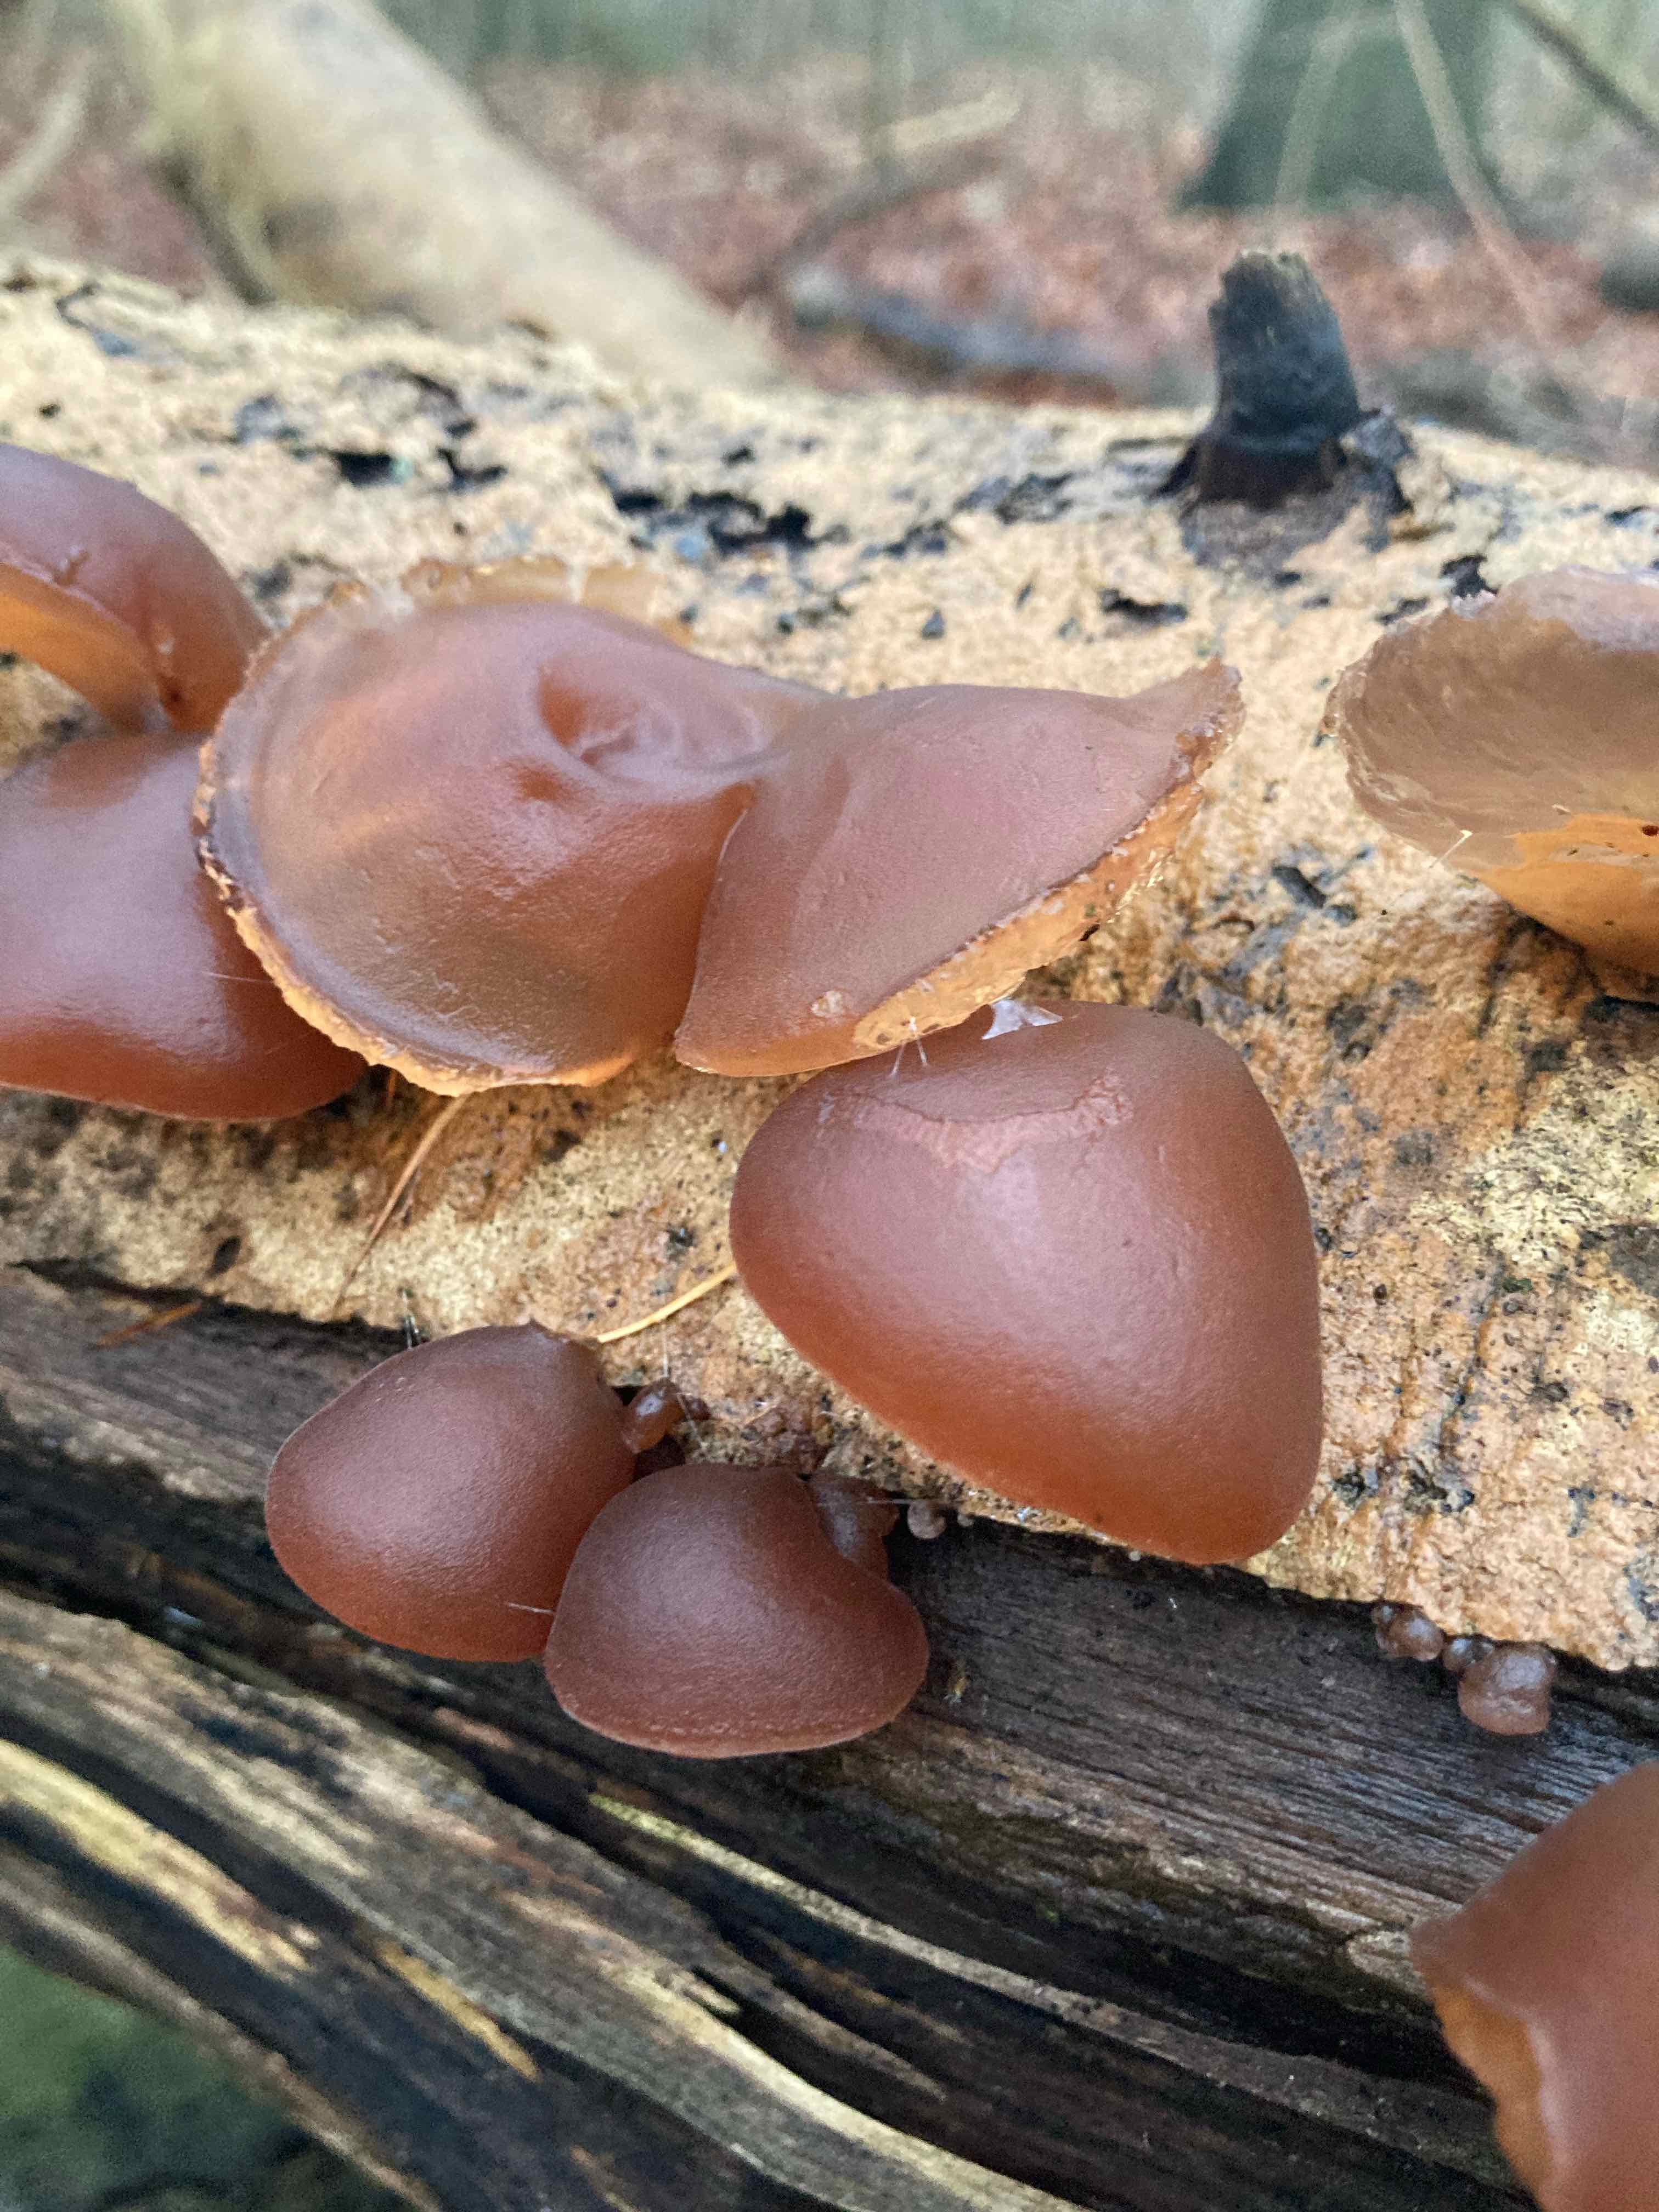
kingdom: Fungi
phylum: Basidiomycota
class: Agaricomycetes
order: Auriculariales
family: Auriculariaceae
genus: Auricularia
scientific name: Auricularia auricula-judae
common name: almindelig judasøre
